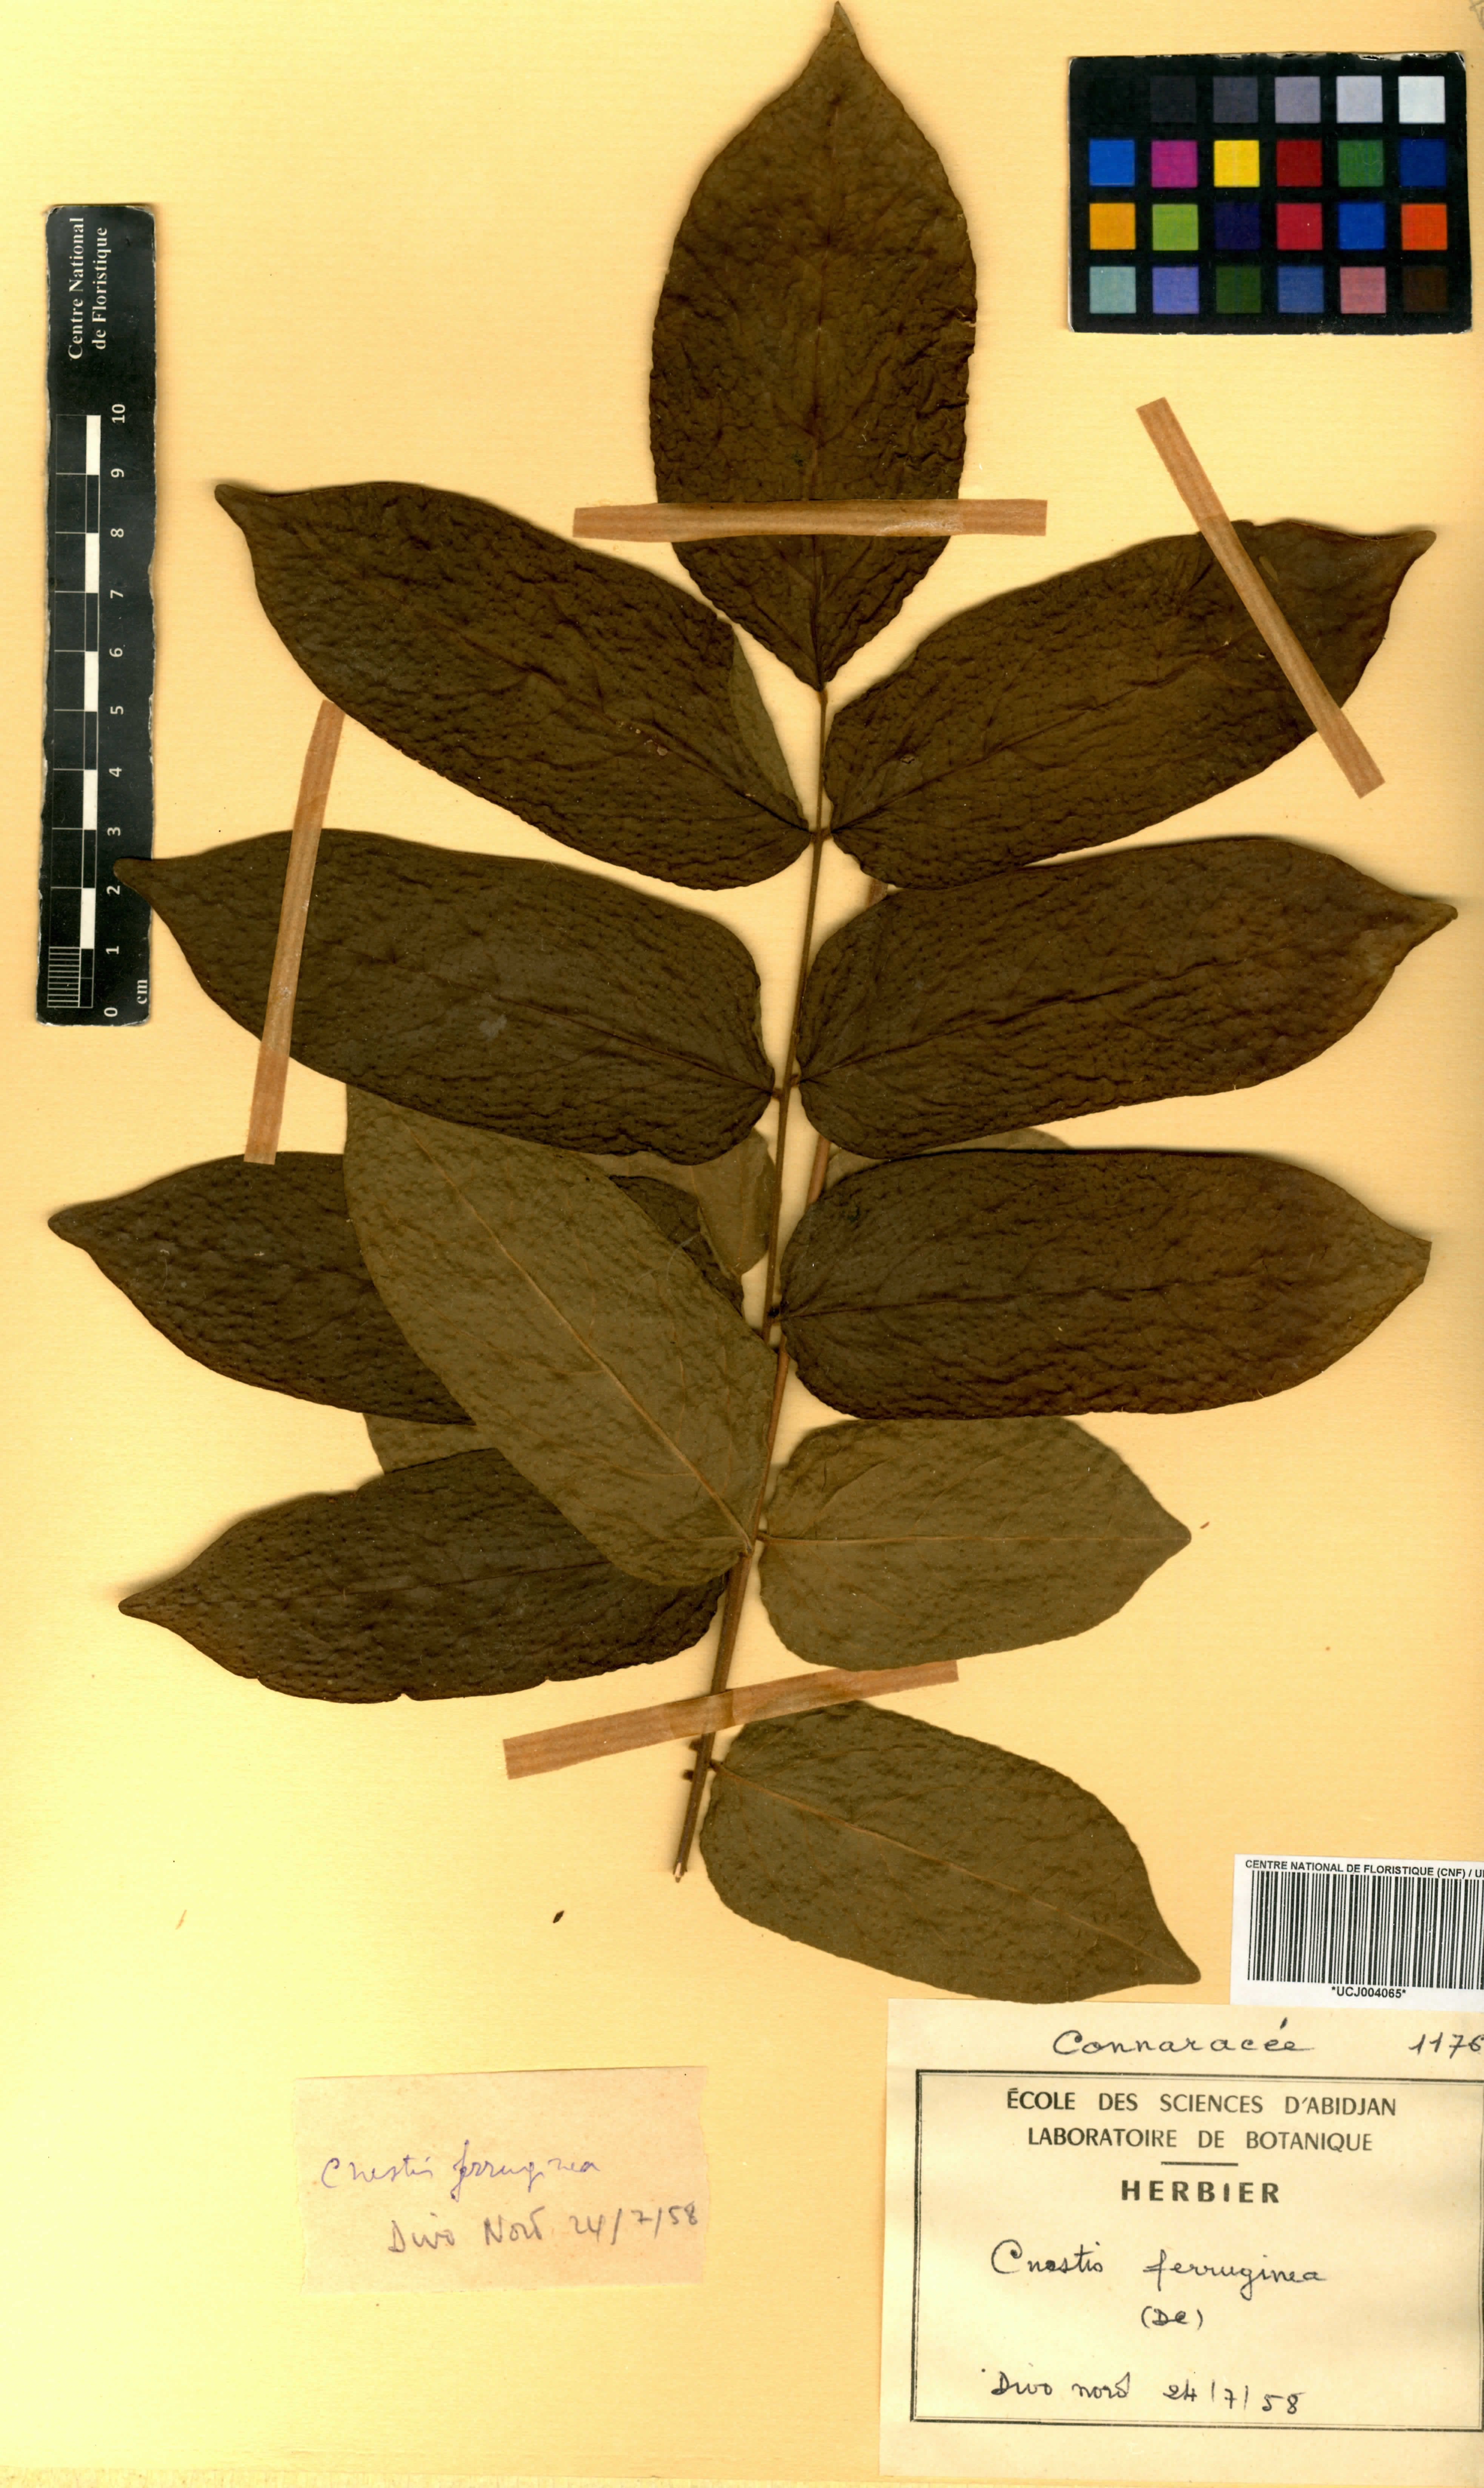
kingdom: Plantae
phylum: Tracheophyta
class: Magnoliopsida
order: Oxalidales
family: Connaraceae
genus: Cnestis
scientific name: Cnestis ferruginea
